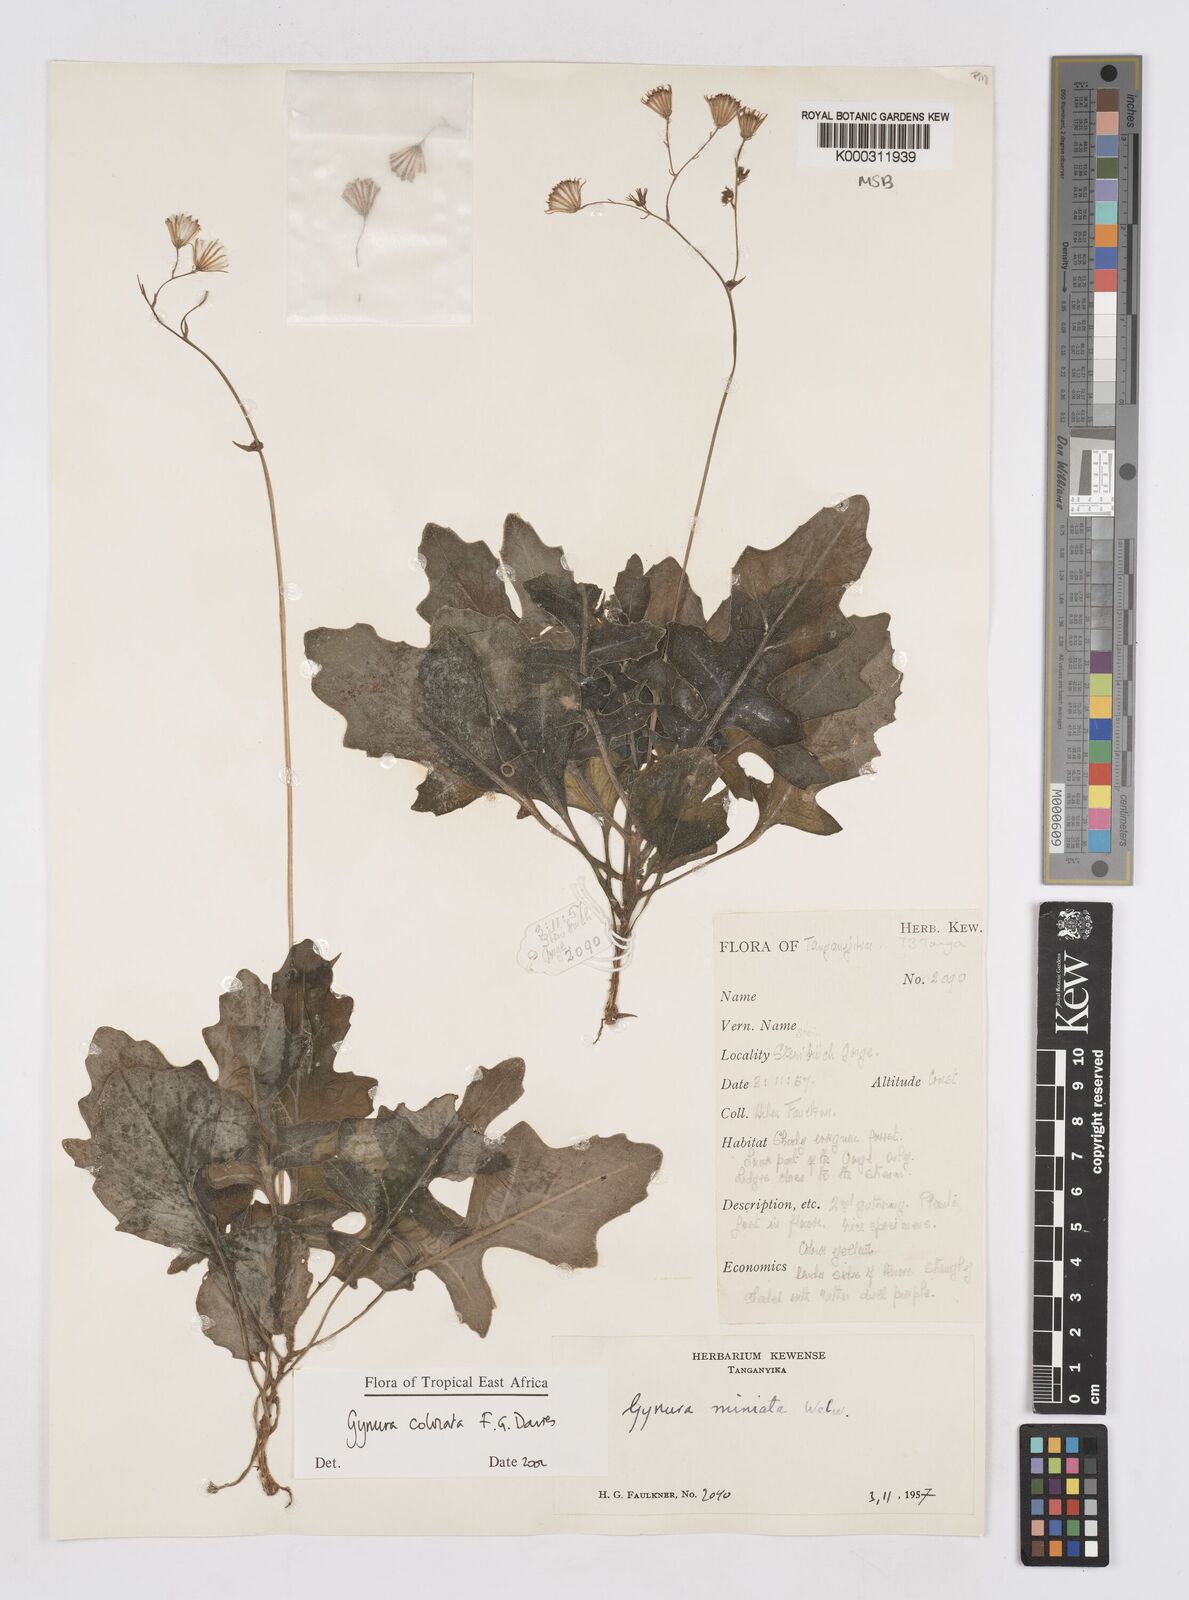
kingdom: Plantae
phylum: Tracheophyta
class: Magnoliopsida
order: Asterales
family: Asteraceae
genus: Gynura
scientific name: Gynura colorata
